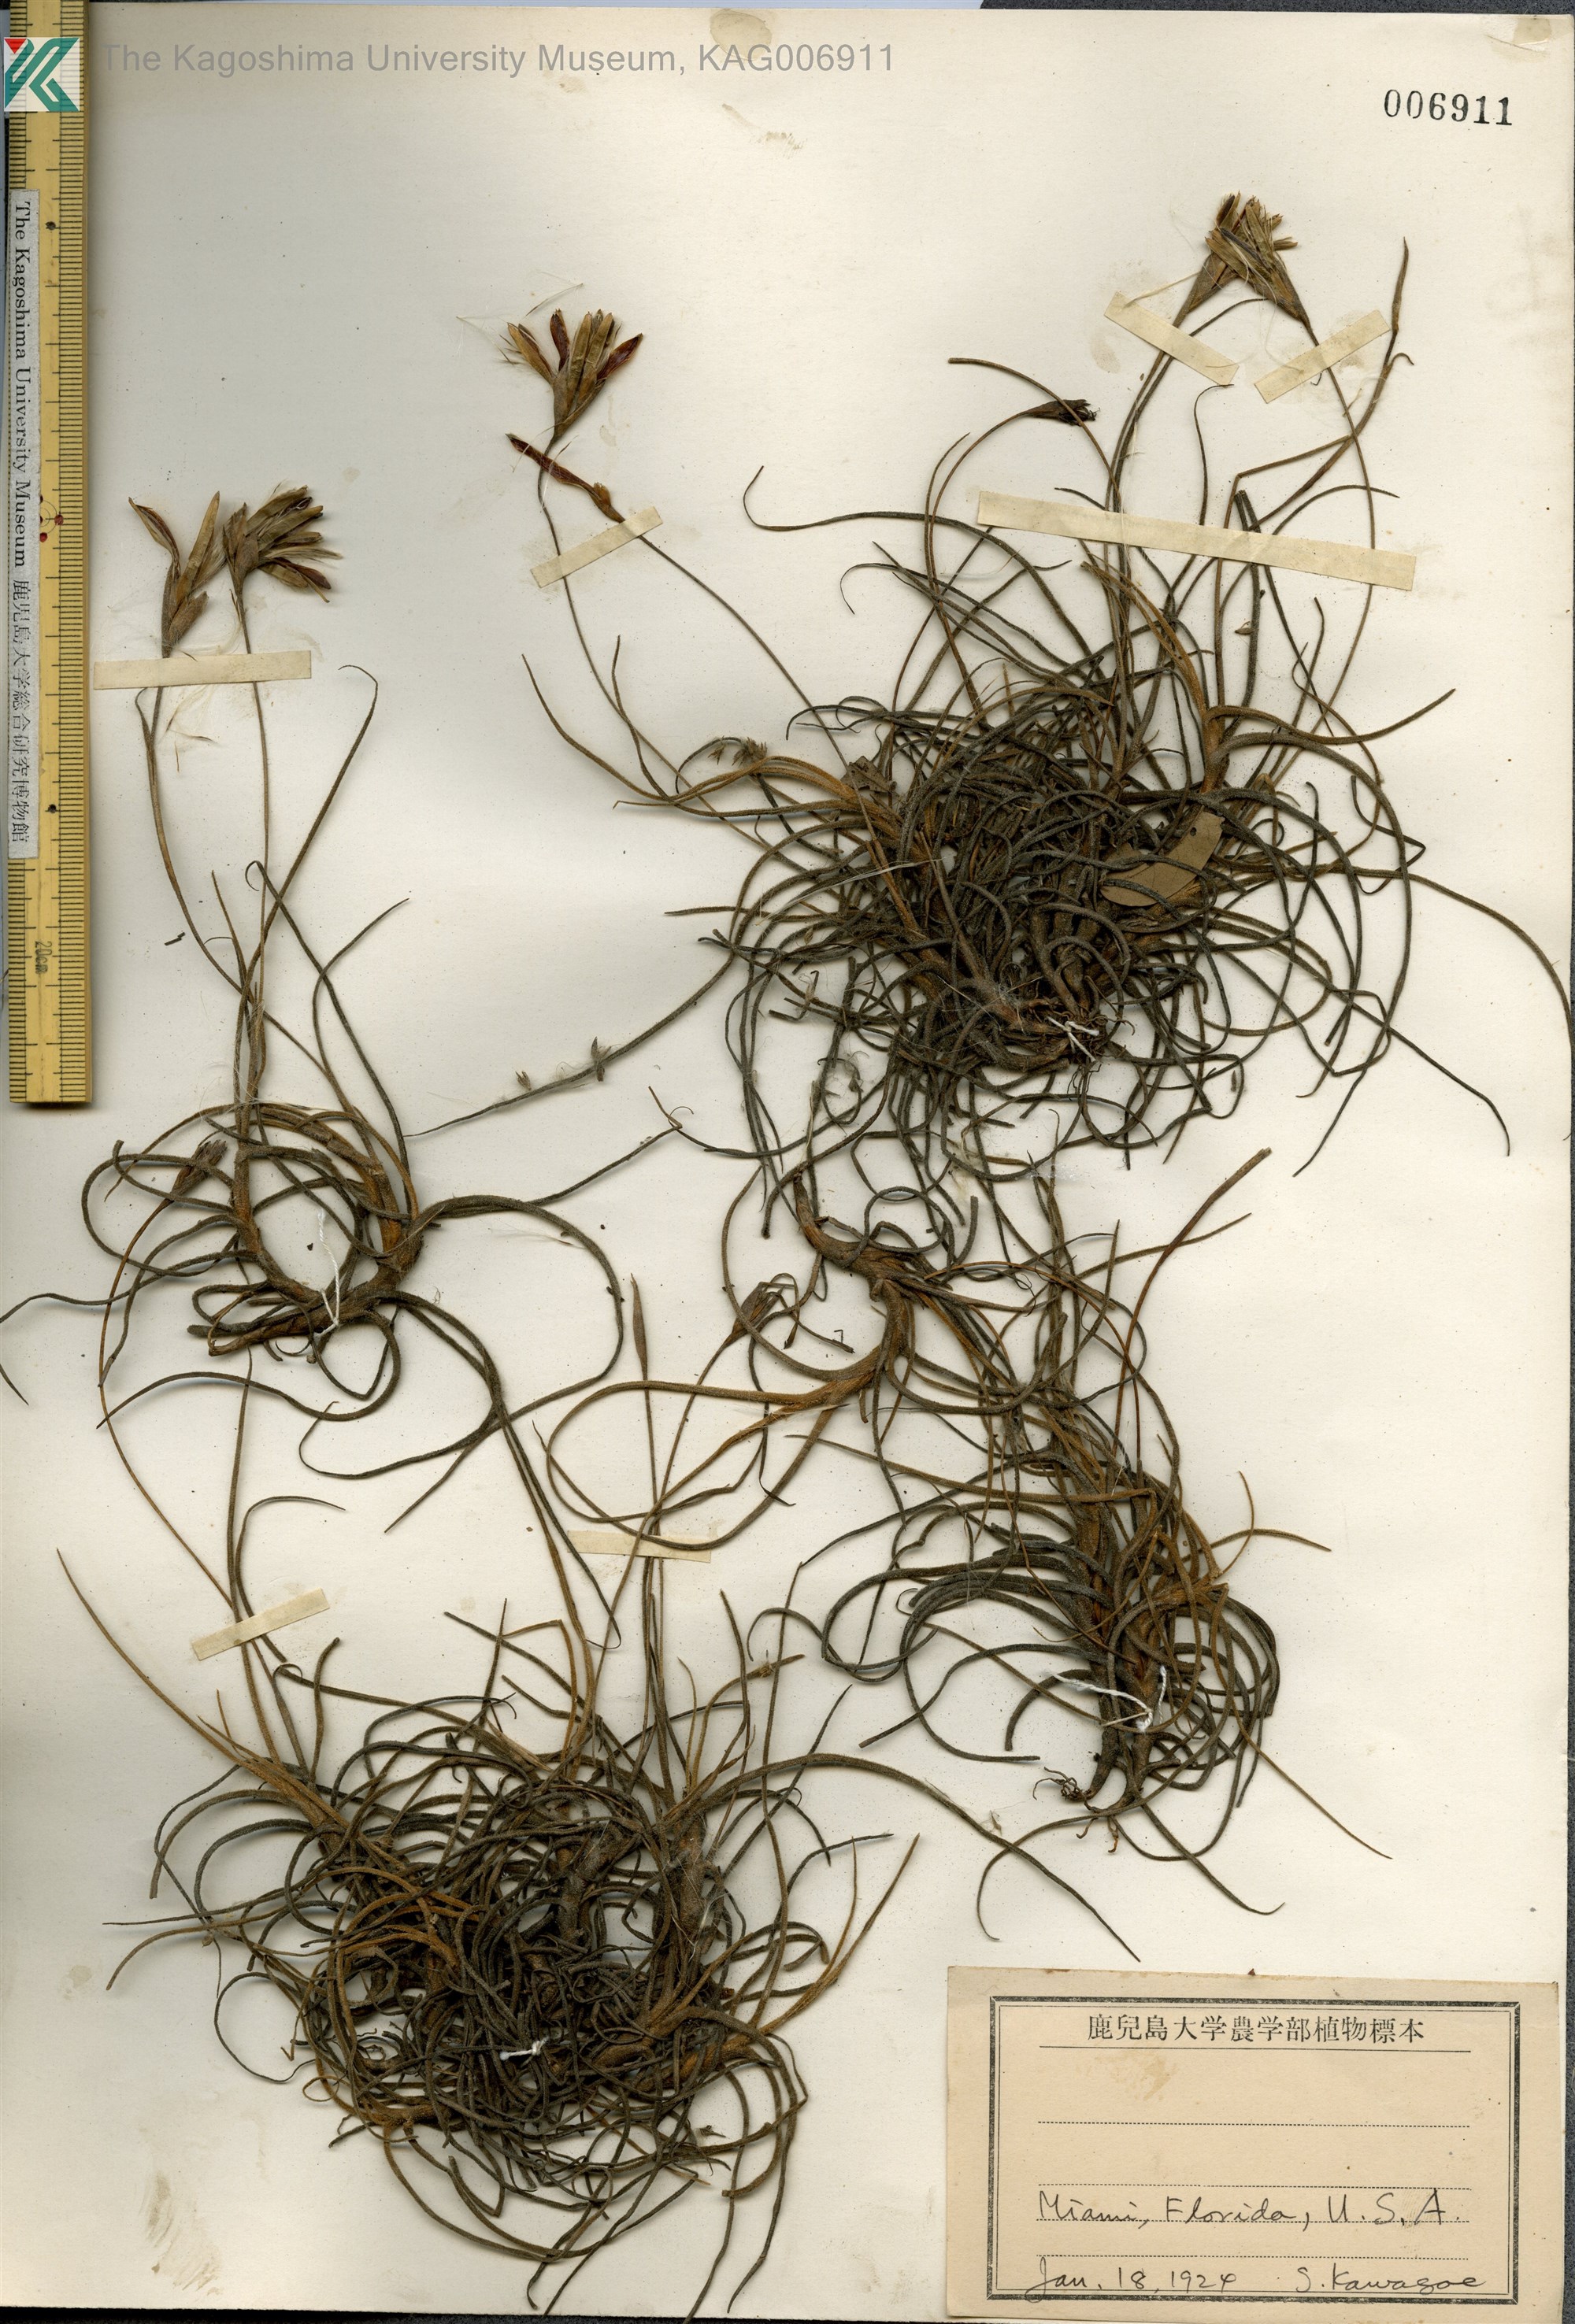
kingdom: Plantae
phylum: Tracheophyta
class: Liliopsida
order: Poales
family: Bromeliaceae
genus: Vriesia
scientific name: Vriesia
